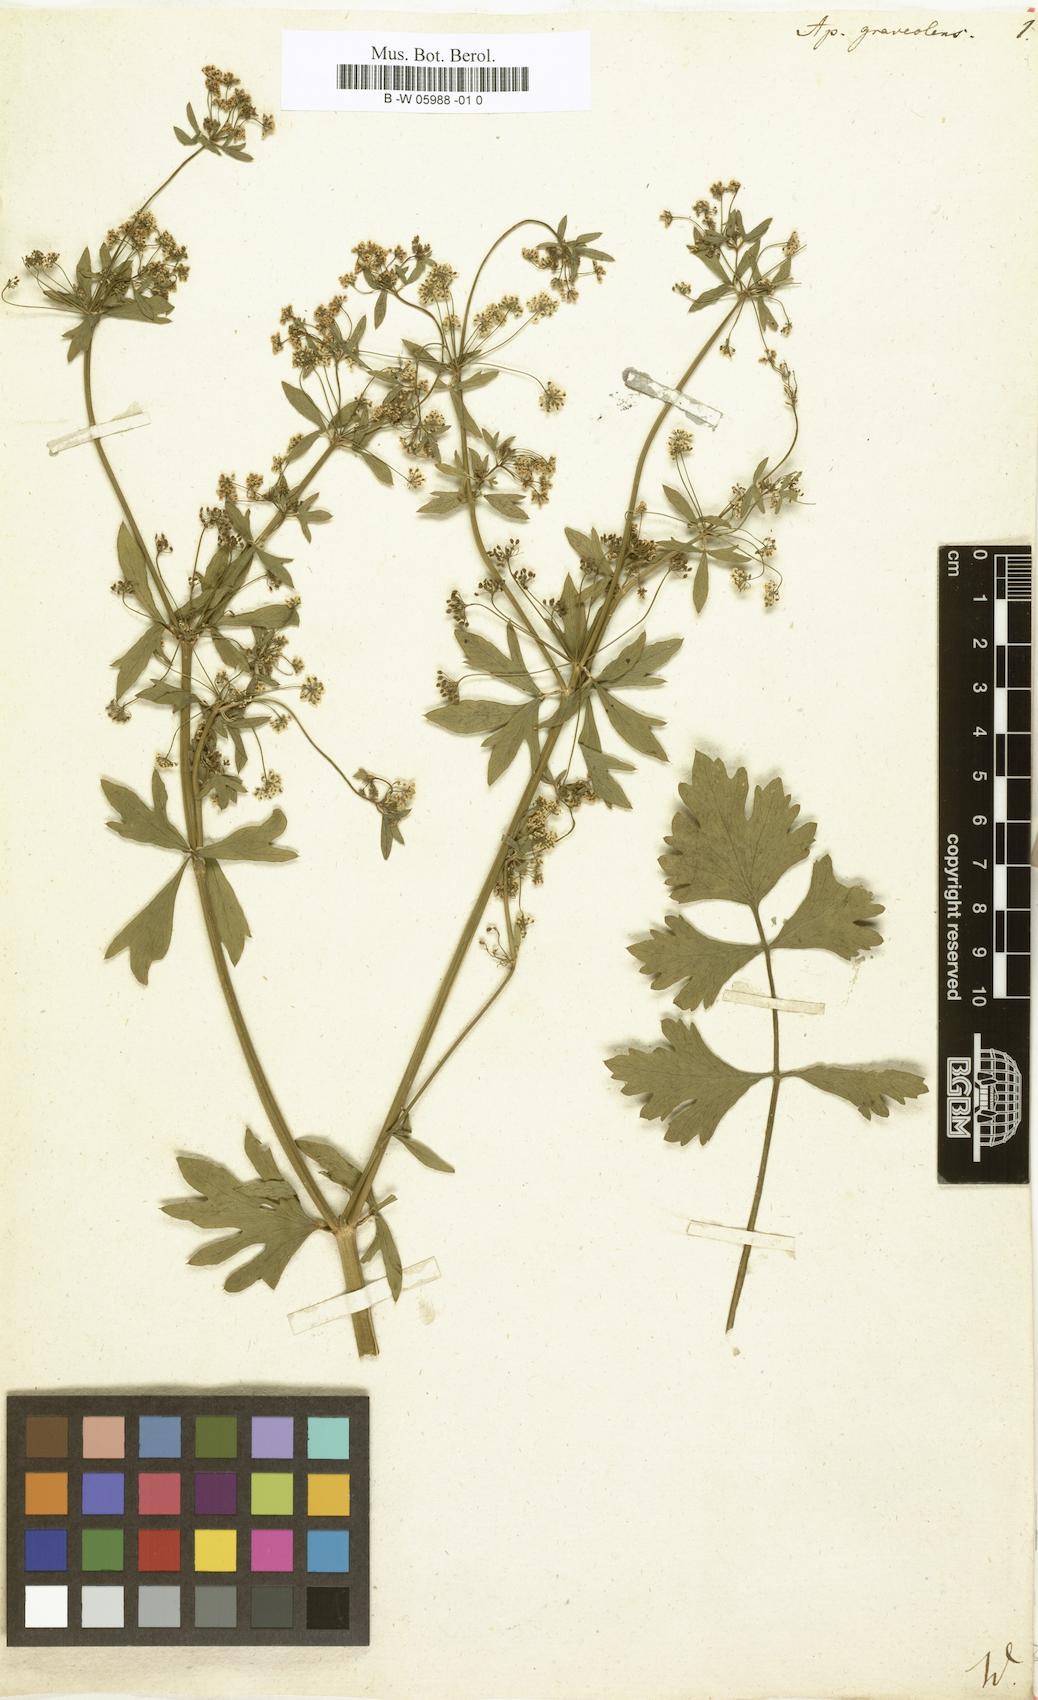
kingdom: Plantae
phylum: Tracheophyta
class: Magnoliopsida
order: Apiales
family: Apiaceae
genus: Apium
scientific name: Apium graveolens
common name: Wild celery
